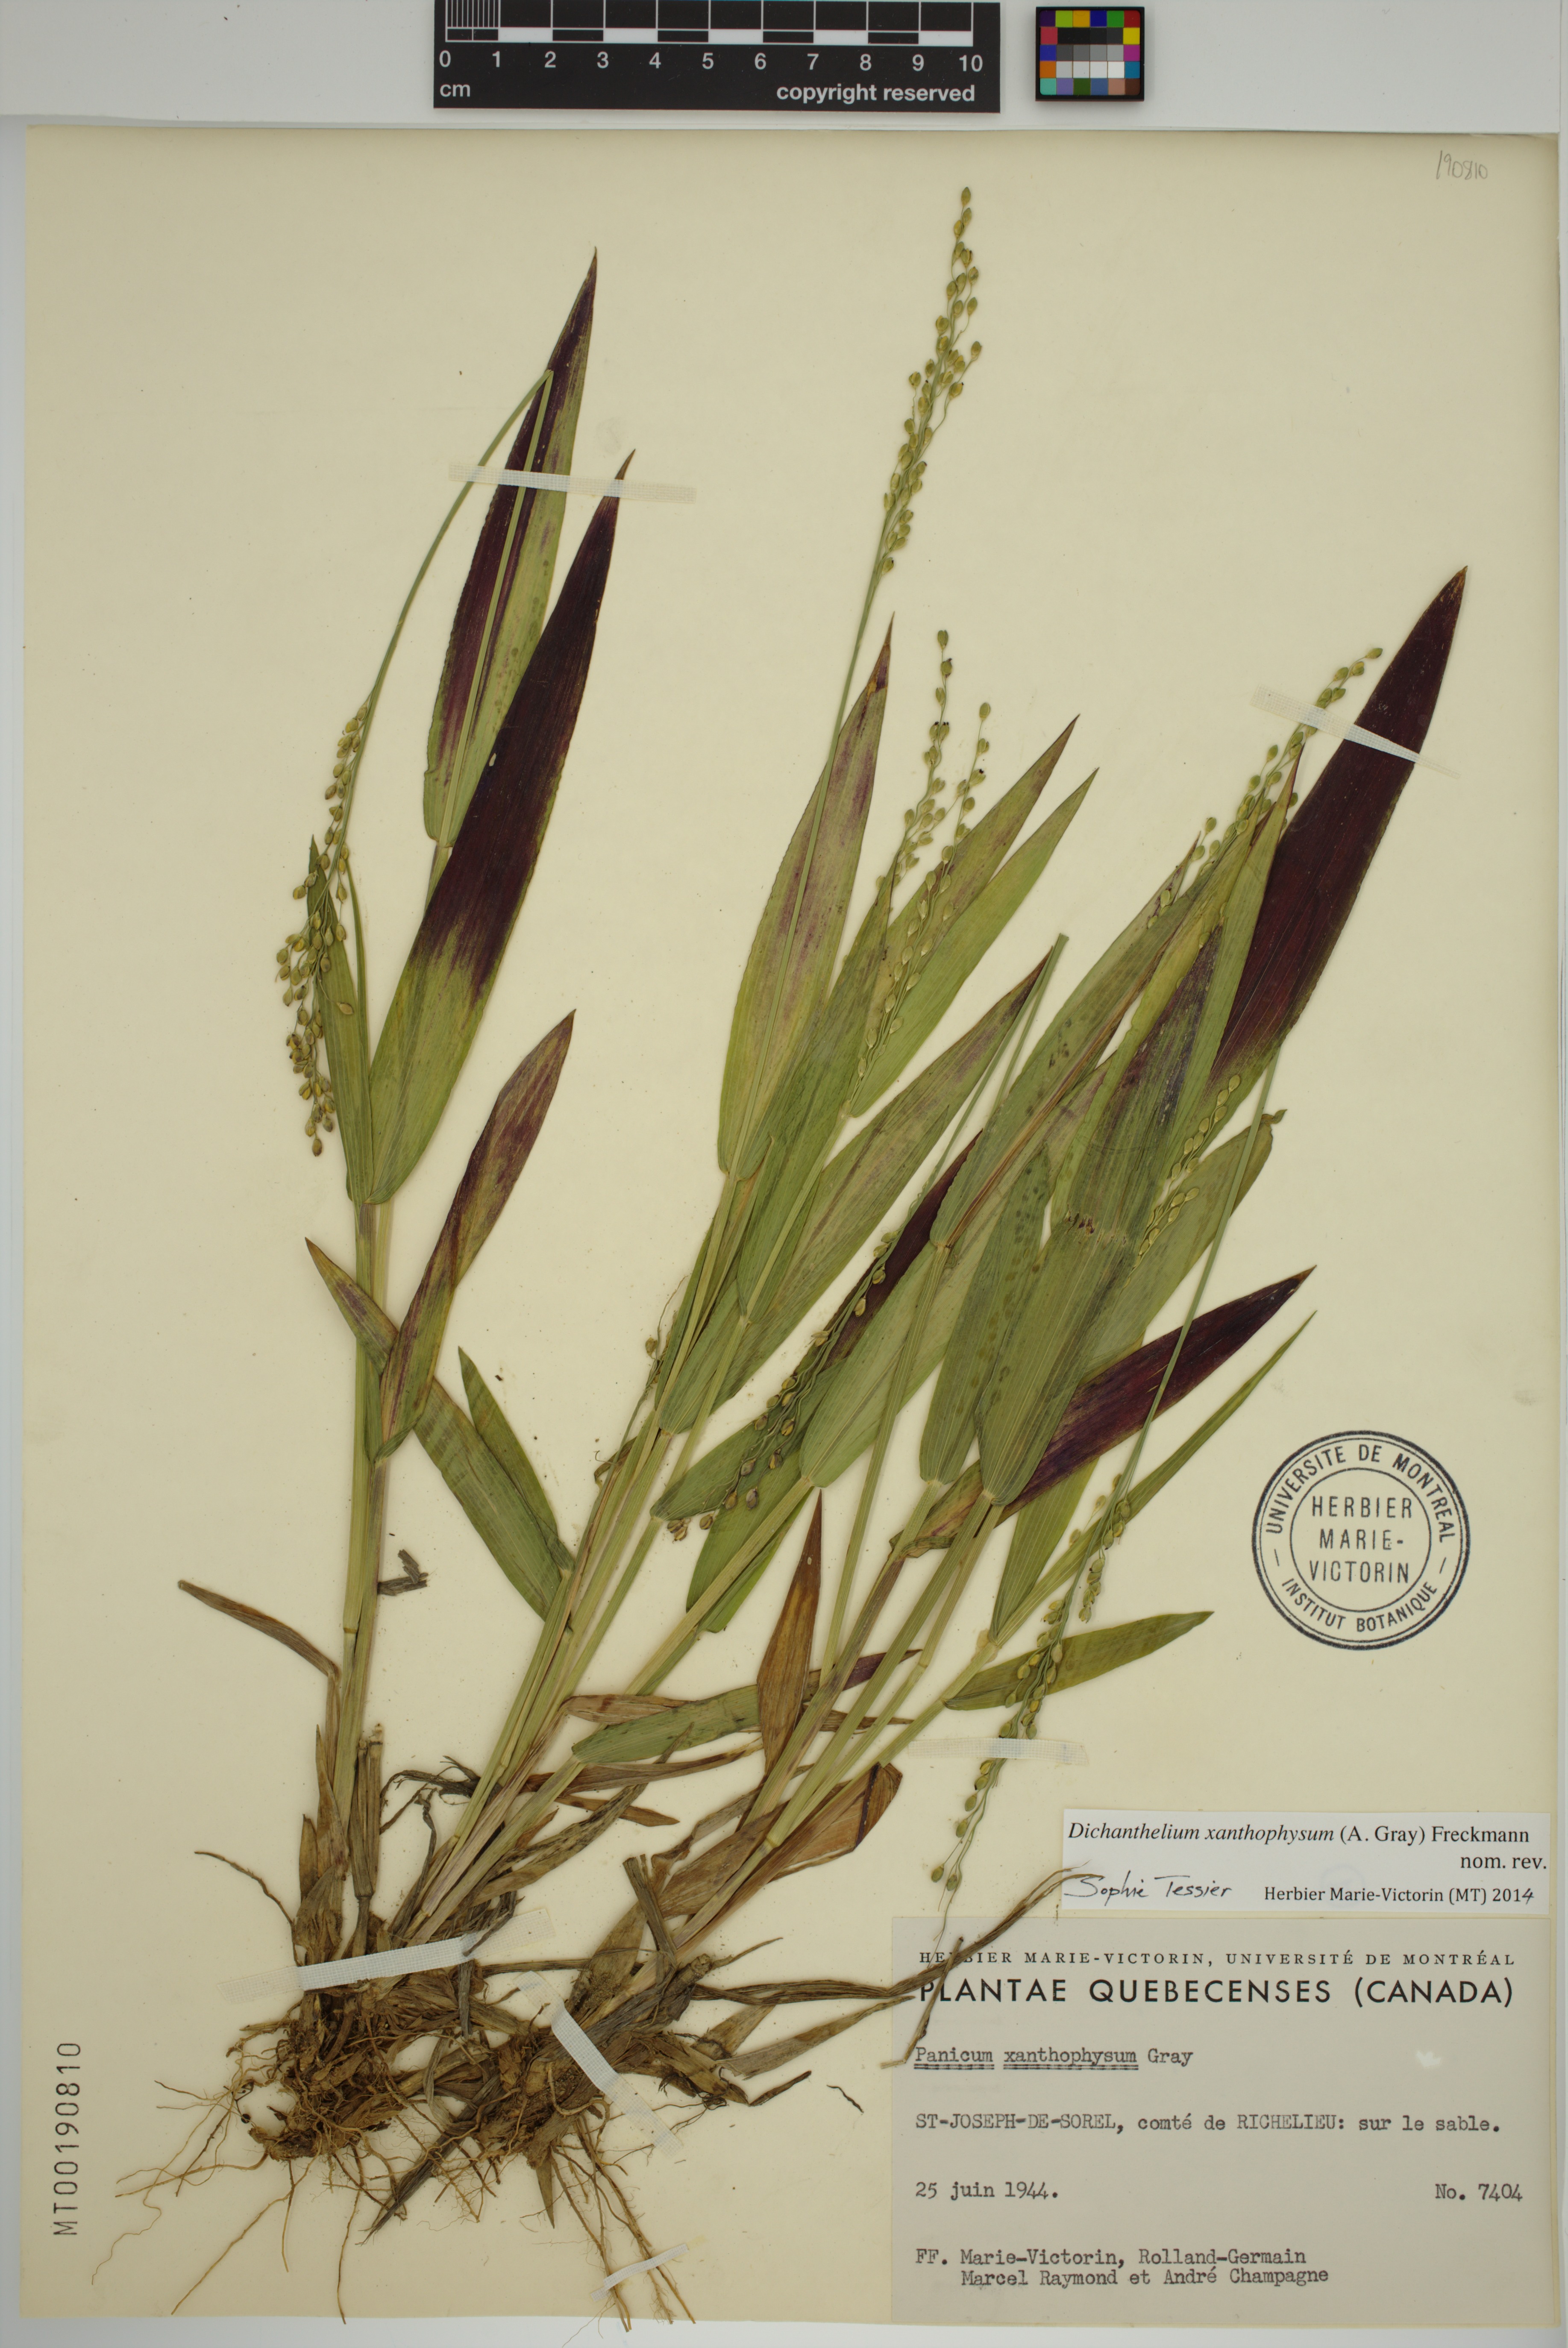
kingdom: Plantae
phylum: Tracheophyta
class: Liliopsida
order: Poales
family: Poaceae
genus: Dichanthelium
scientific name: Dichanthelium xanthophysum
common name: Pale panicgrass
